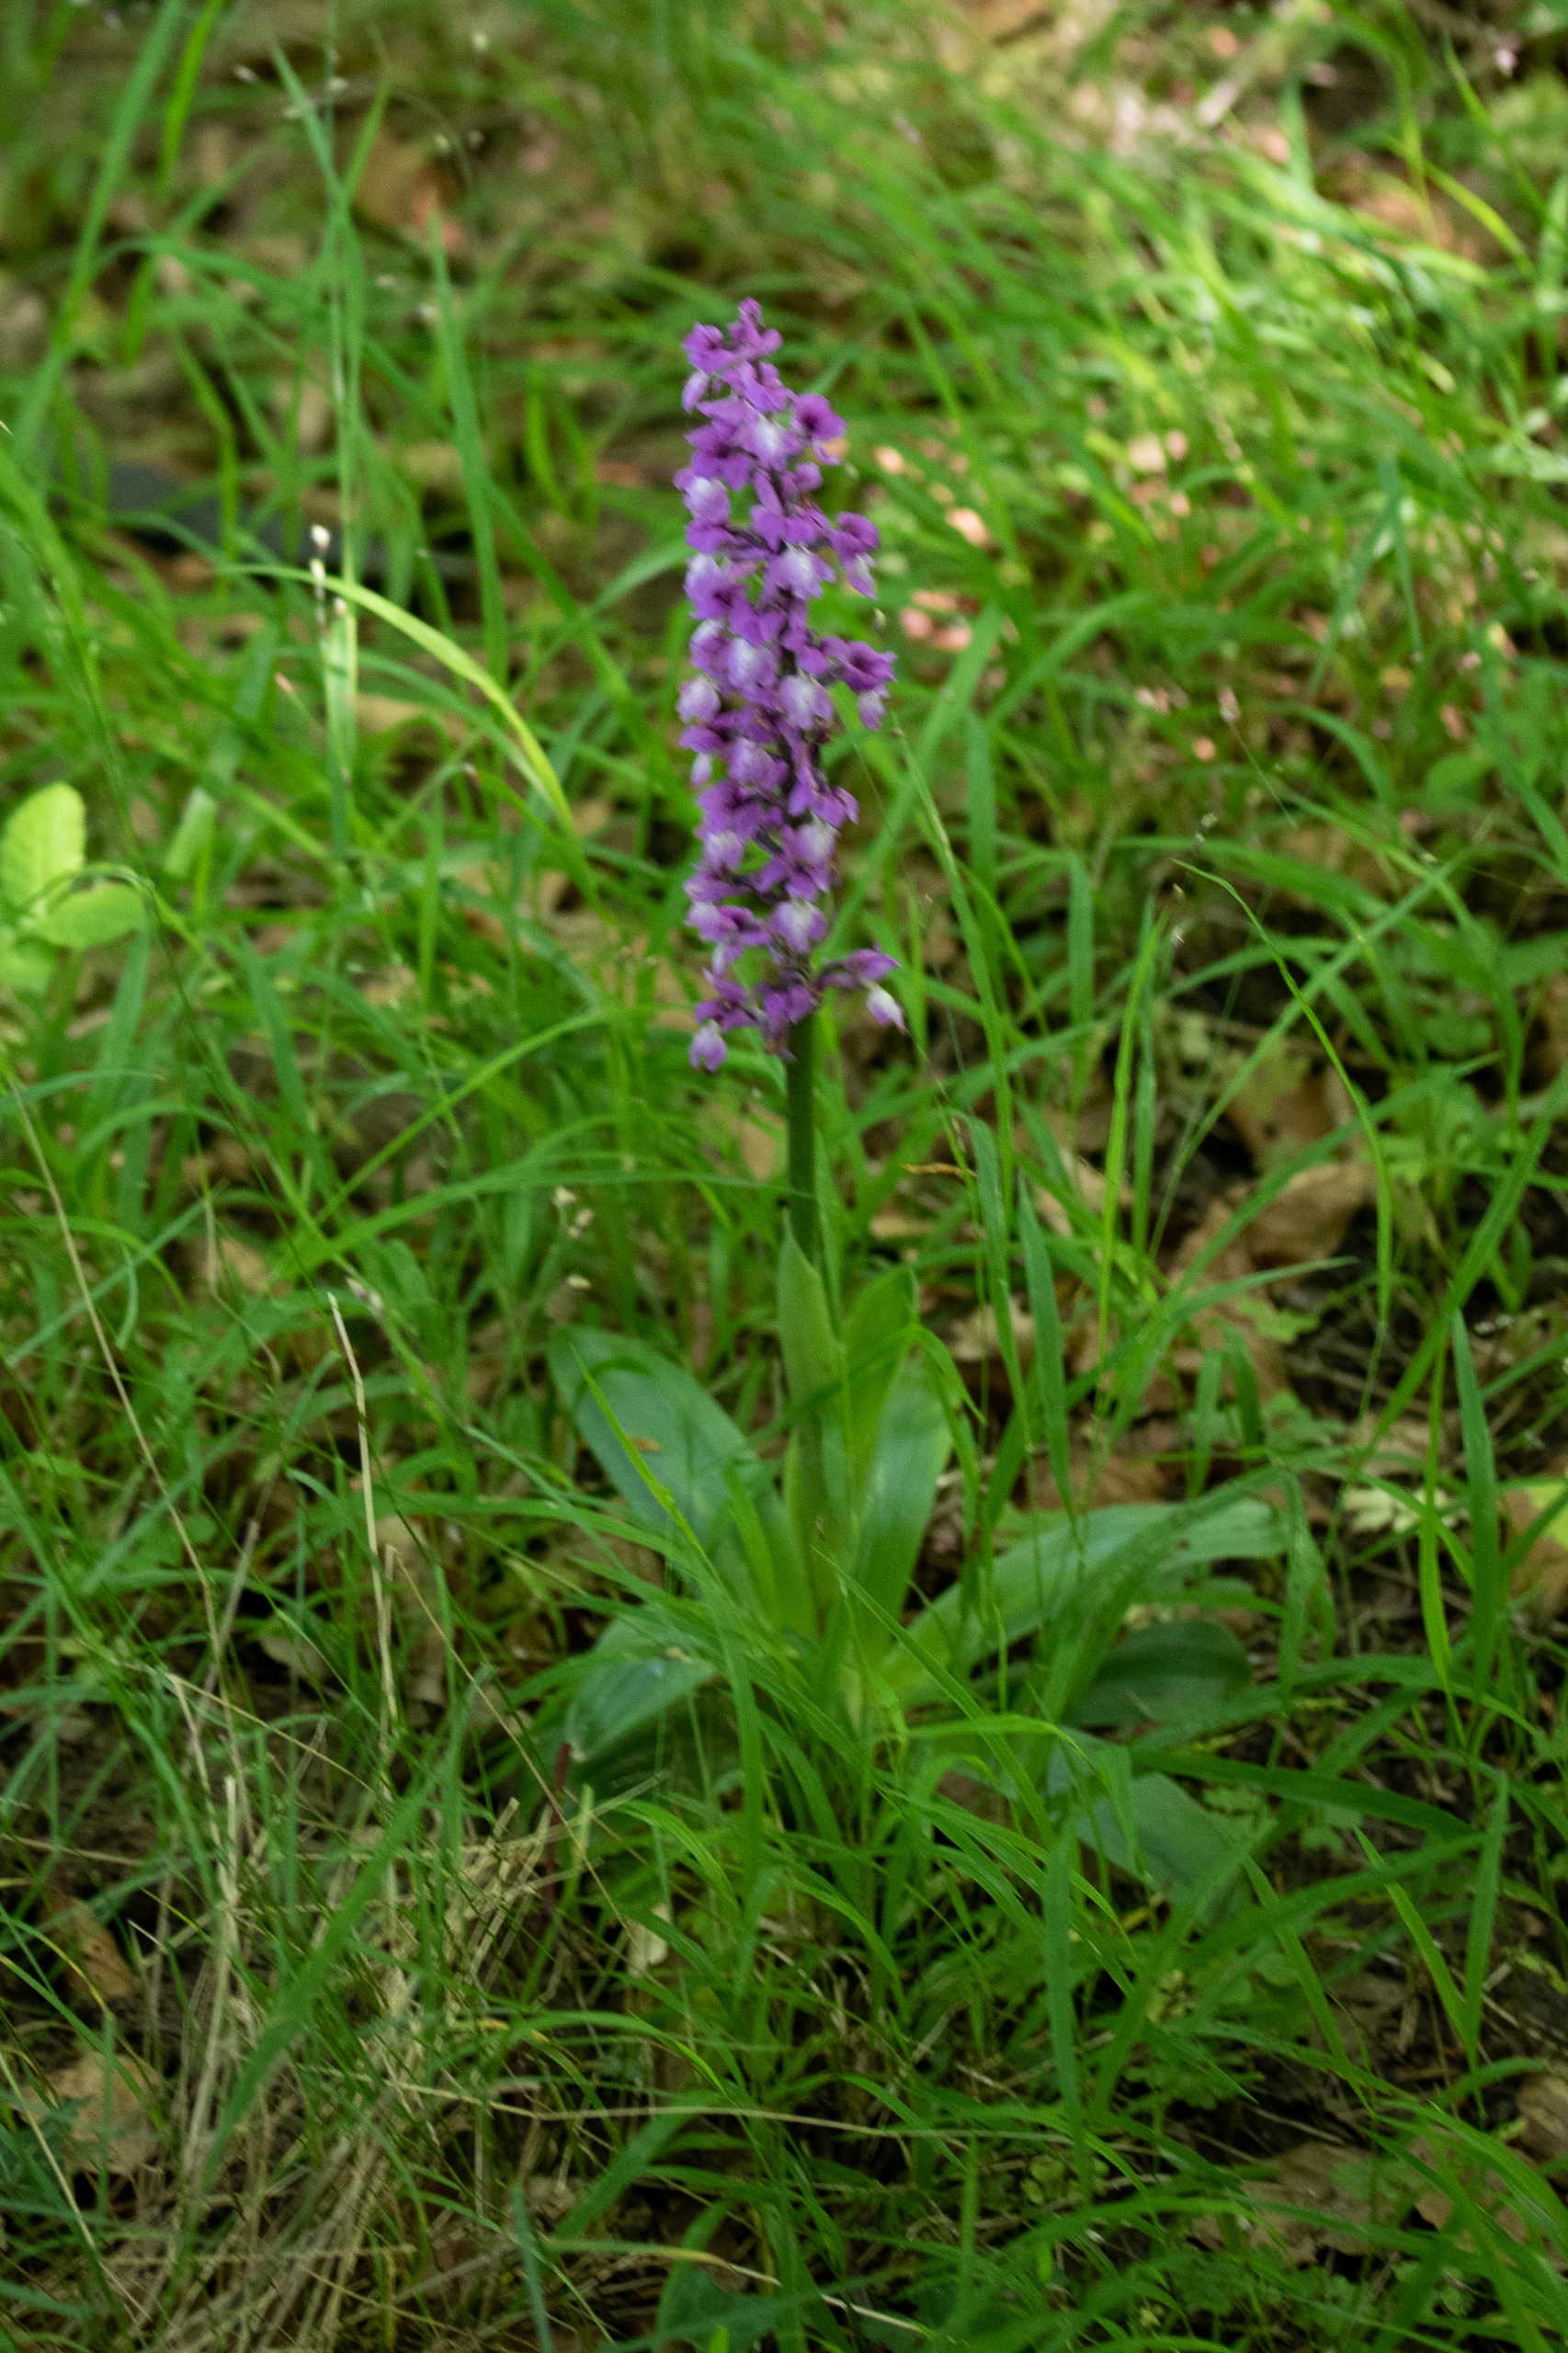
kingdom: Plantae
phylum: Tracheophyta
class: Liliopsida
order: Asparagales
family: Orchidaceae
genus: Orchis
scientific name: Orchis mascula
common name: Tyndakset gøgeurt
